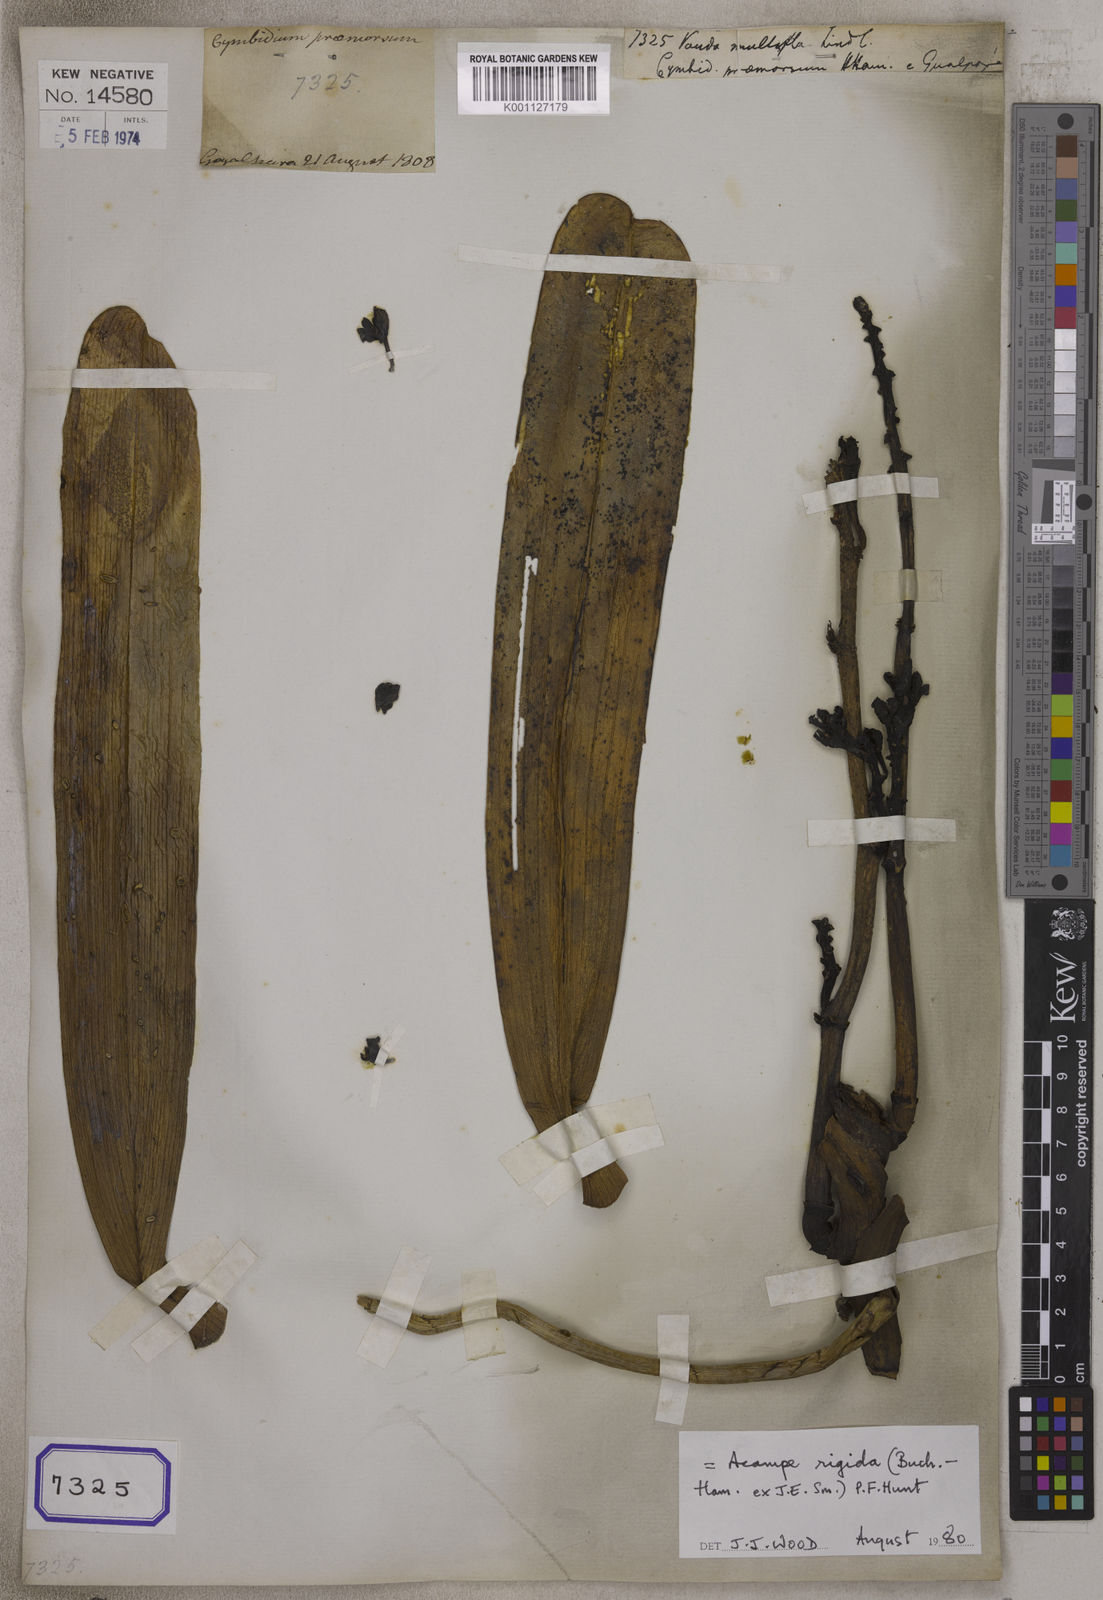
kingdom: Plantae
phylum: Tracheophyta
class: Liliopsida
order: Asparagales
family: Orchidaceae
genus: Acampe
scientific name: Acampe praemorsa
